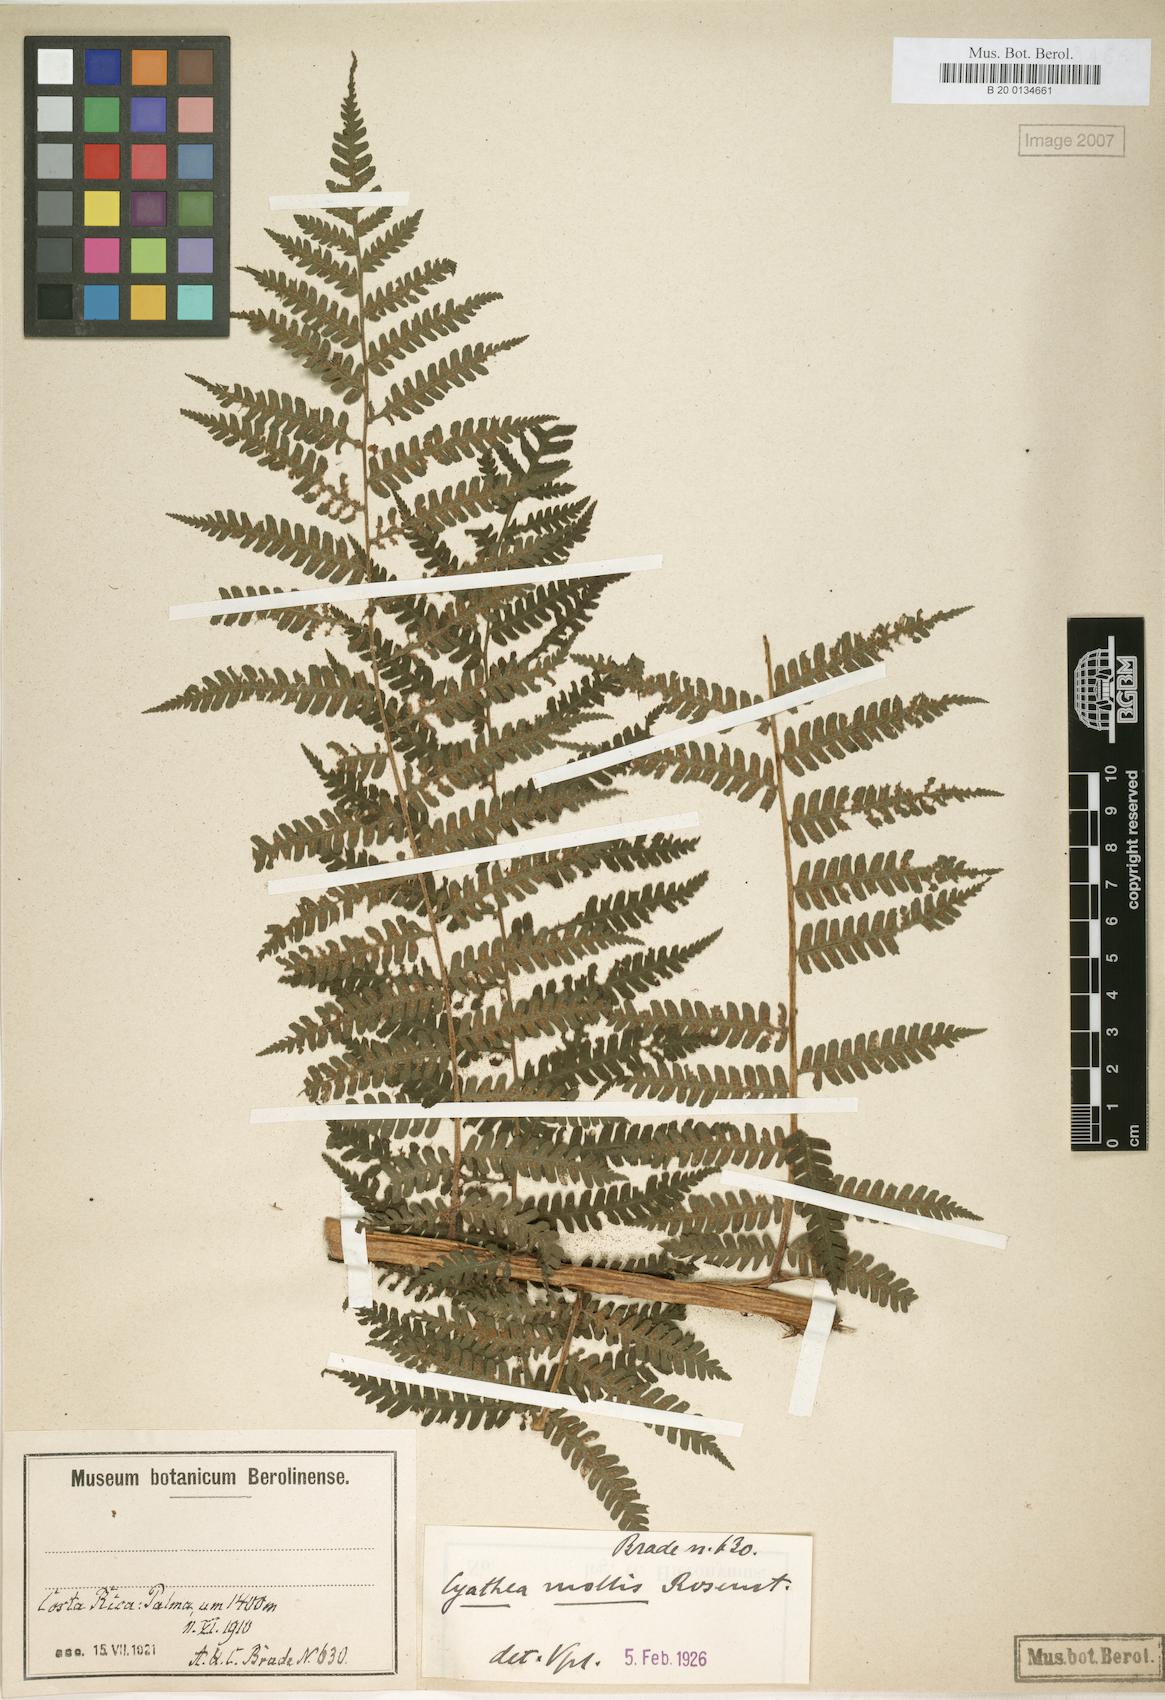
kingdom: Plantae
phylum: Tracheophyta
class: Polypodiopsida
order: Cyatheales
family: Cyatheaceae
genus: Cyathea
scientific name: Cyathea fulva
